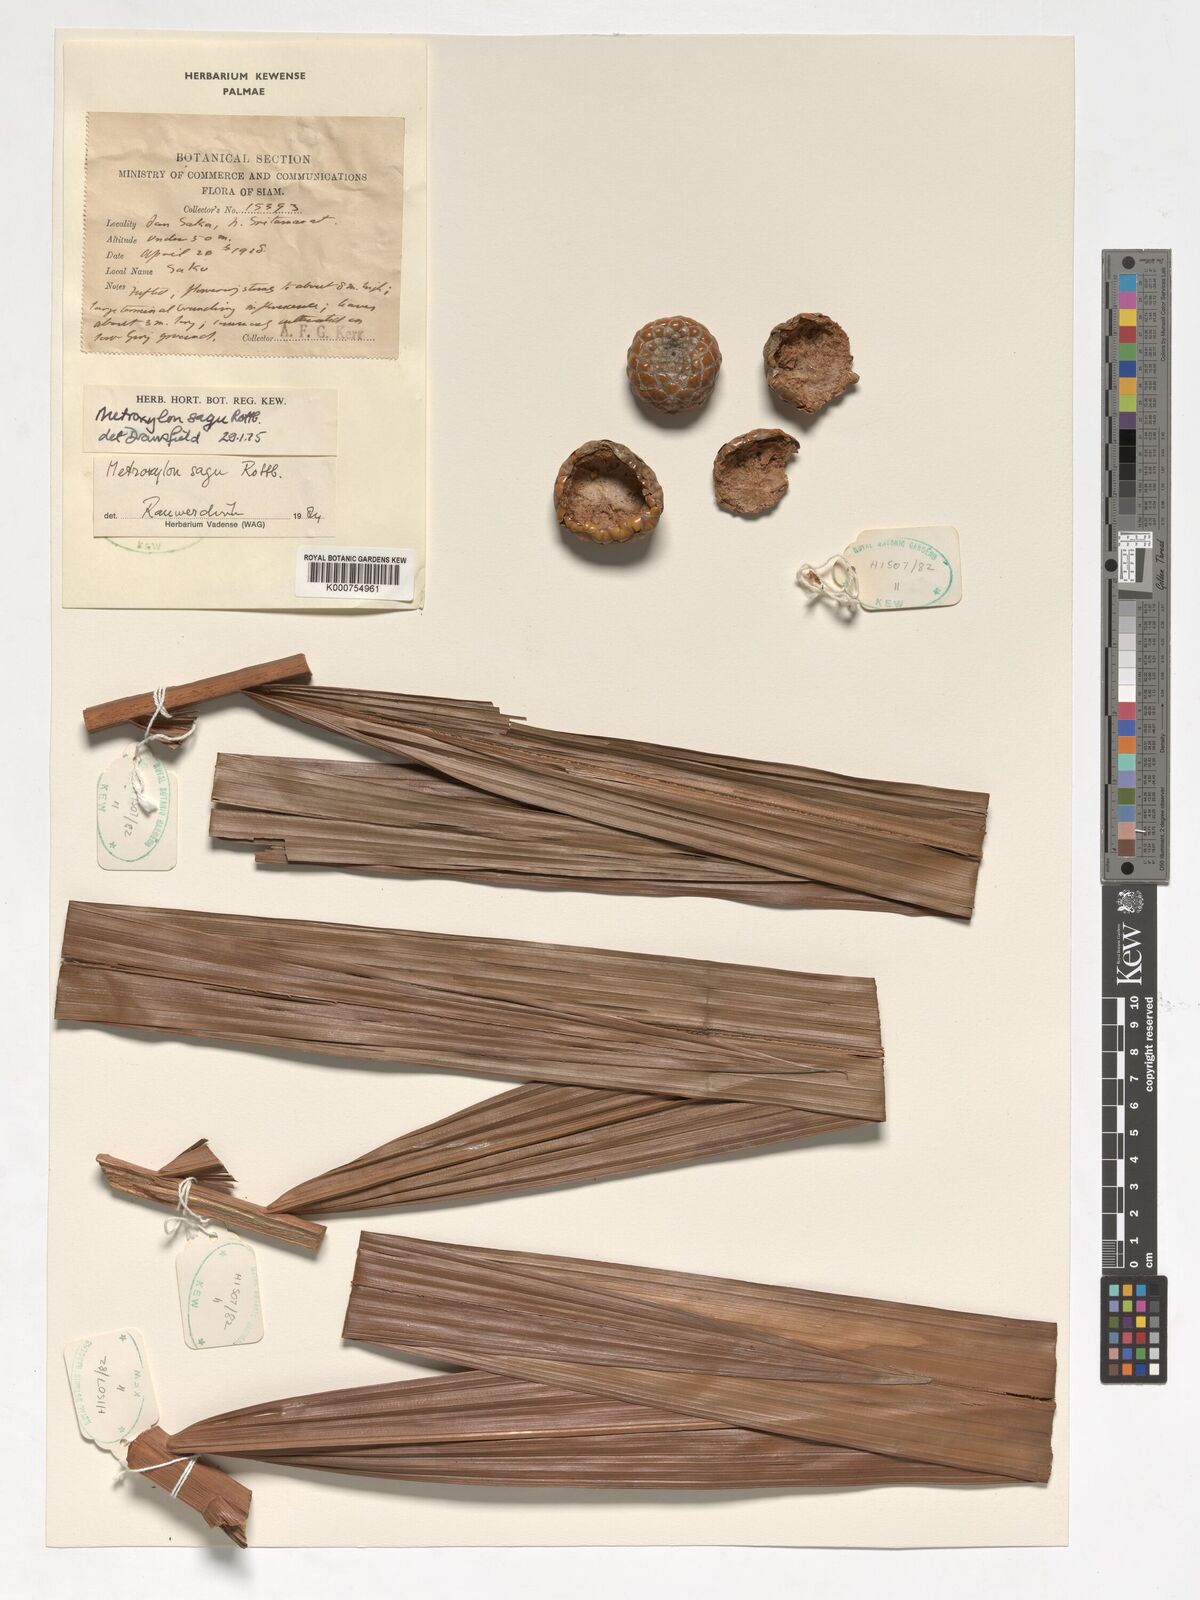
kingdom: Plantae
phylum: Tracheophyta
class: Liliopsida
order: Arecales
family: Arecaceae
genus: Metroxylon
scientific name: Metroxylon sagu
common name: Sago palm
